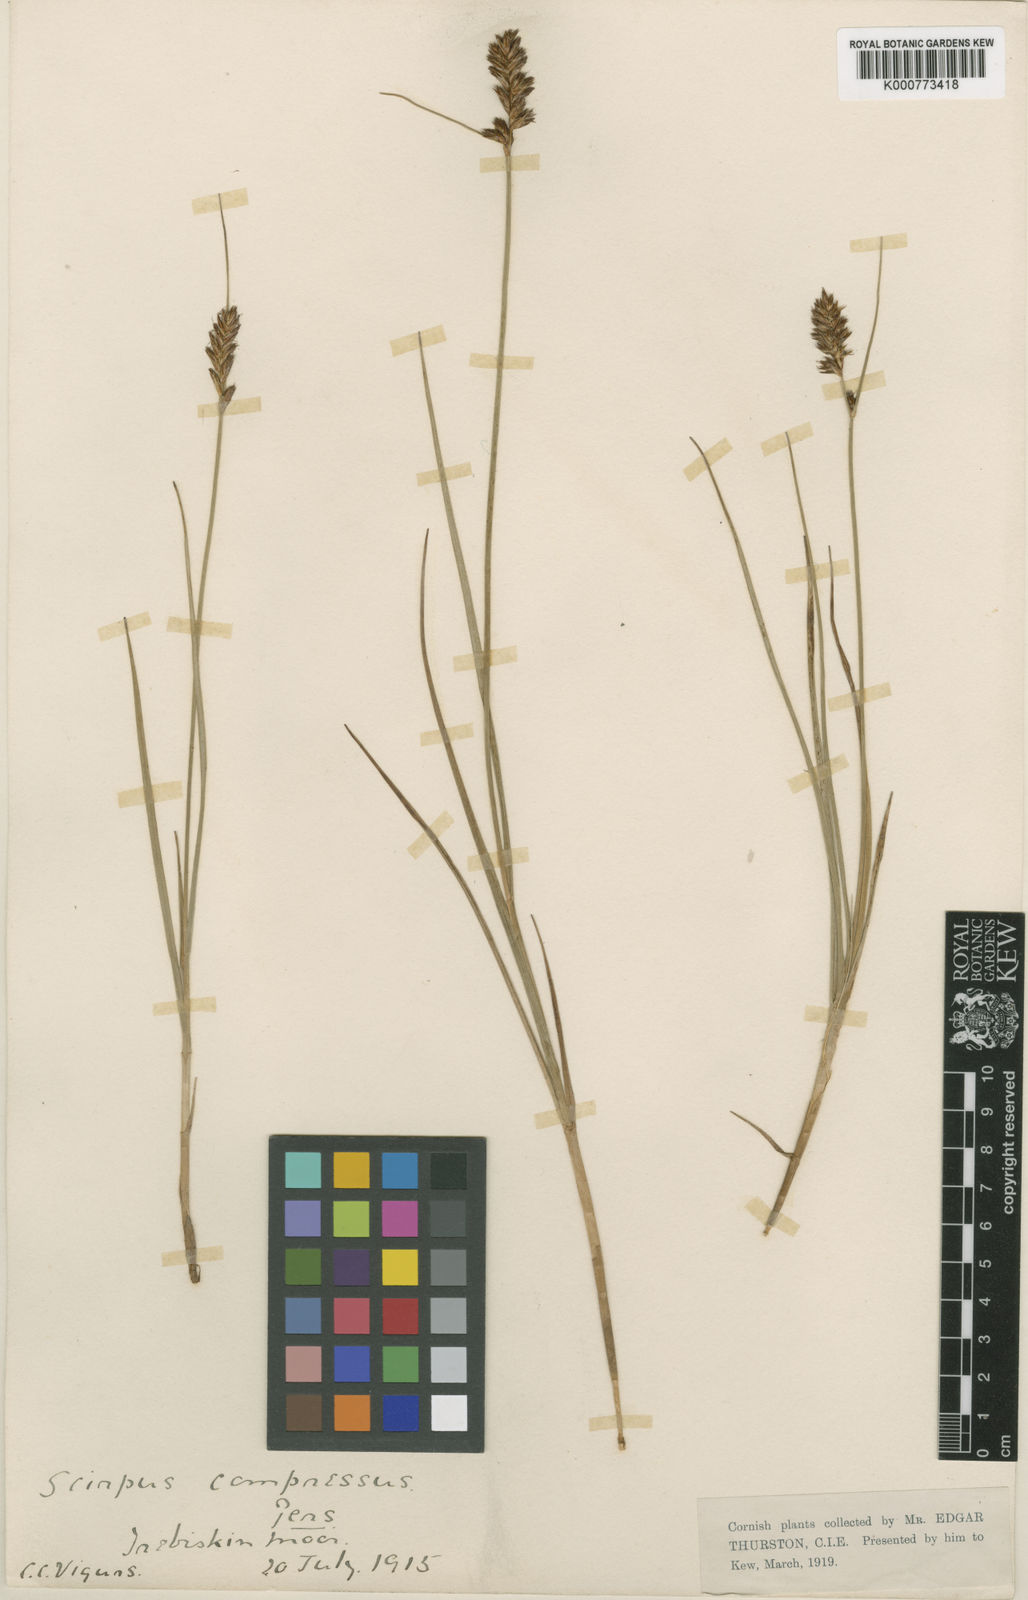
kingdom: Plantae
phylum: Tracheophyta
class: Liliopsida
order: Poales
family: Cyperaceae
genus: Blysmus
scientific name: Blysmus compressus
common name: Flat-sedge
